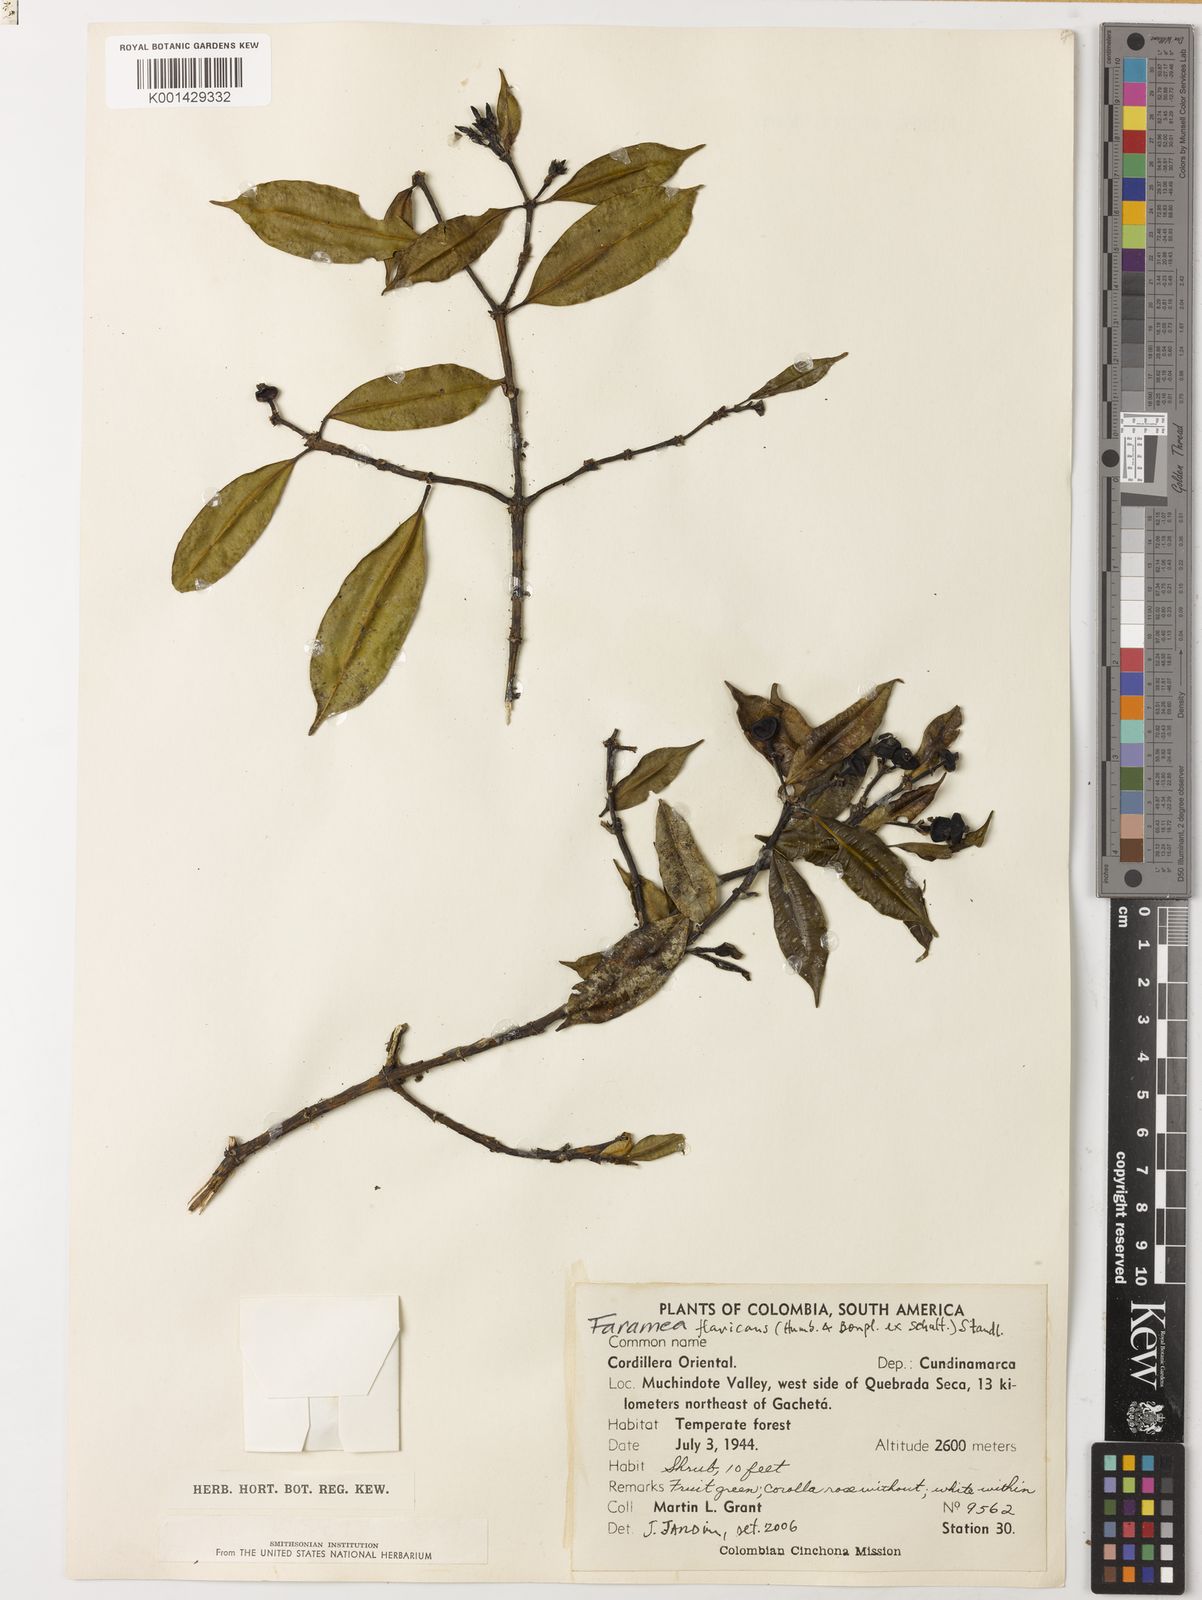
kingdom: Plantae
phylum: Tracheophyta
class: Magnoliopsida
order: Gentianales
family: Rubiaceae
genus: Faramea
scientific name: Faramea jasminoides
